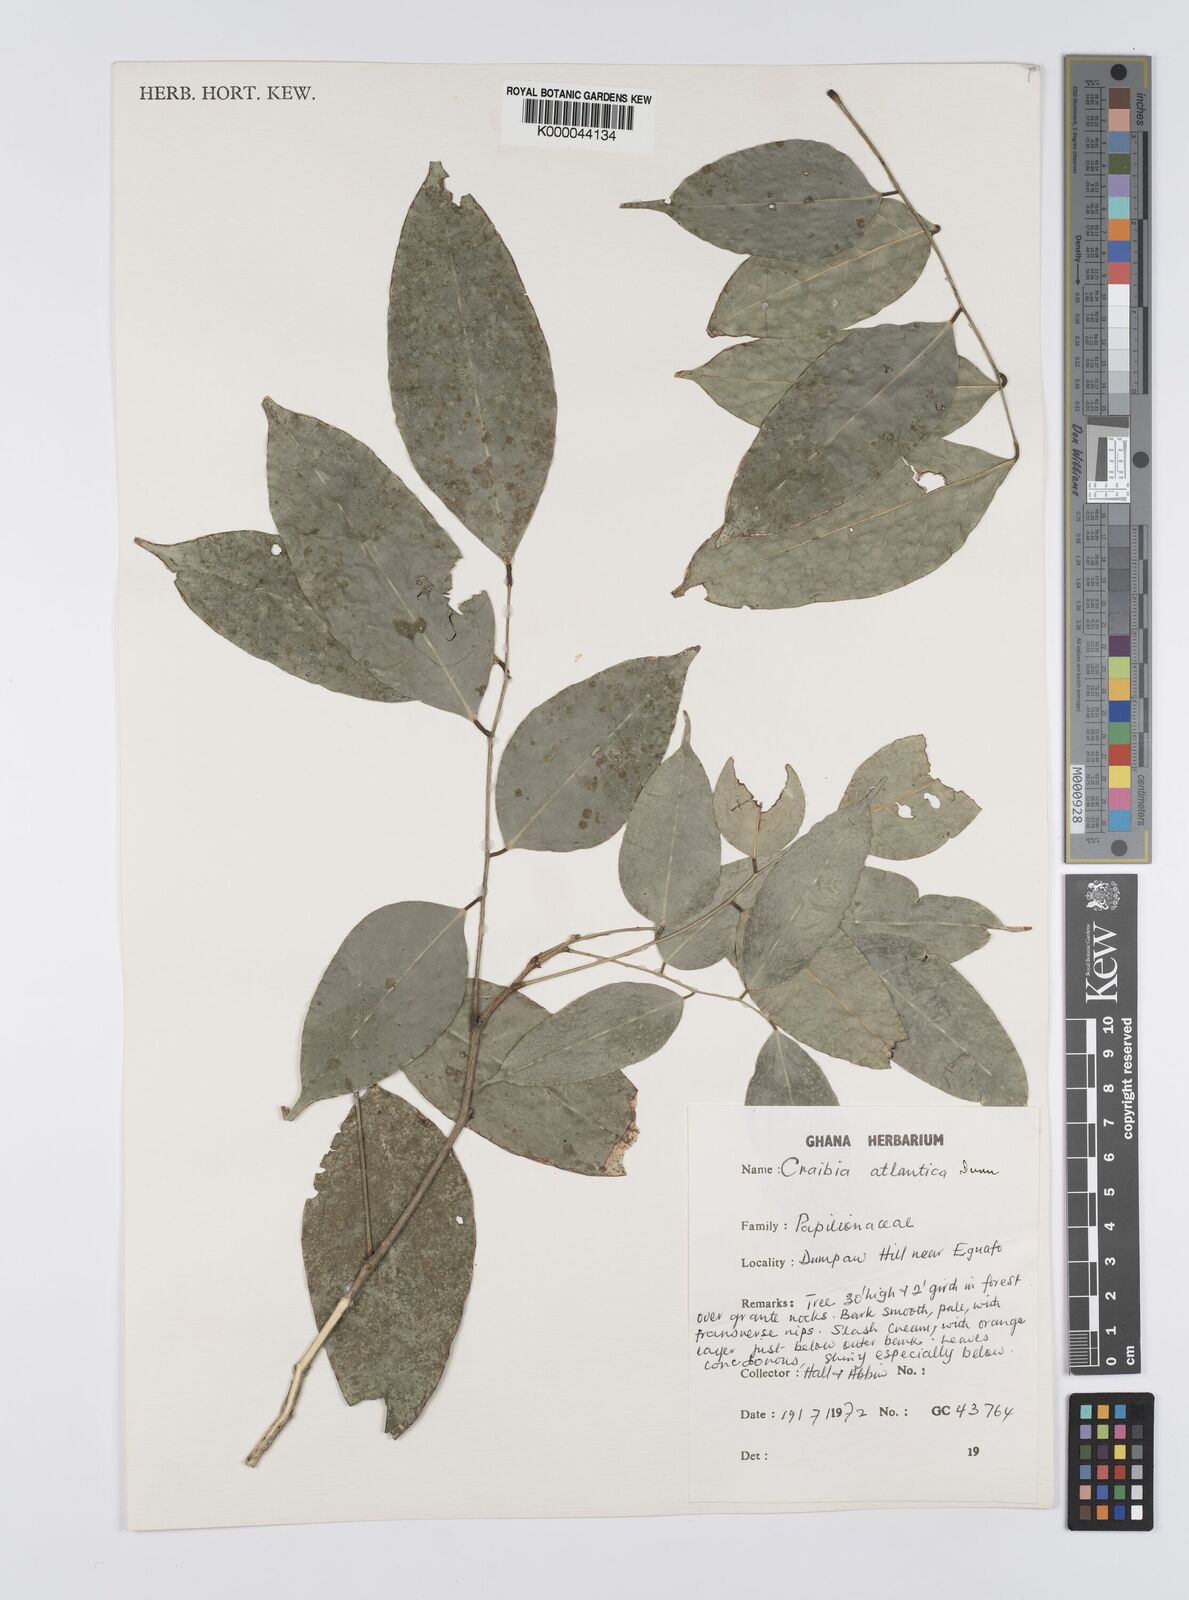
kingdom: Plantae
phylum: Tracheophyta
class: Magnoliopsida
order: Fabales
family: Fabaceae
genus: Craibia
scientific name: Craibia atlantica
